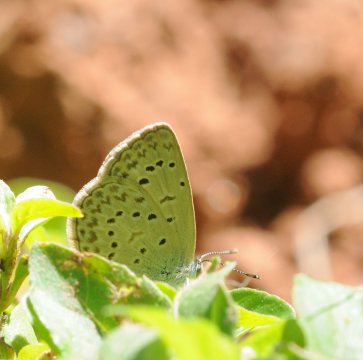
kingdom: Animalia
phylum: Arthropoda
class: Insecta
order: Lepidoptera
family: Lycaenidae
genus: Zizeeria
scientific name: Zizeeria knysna
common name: Dark Grass Blue
